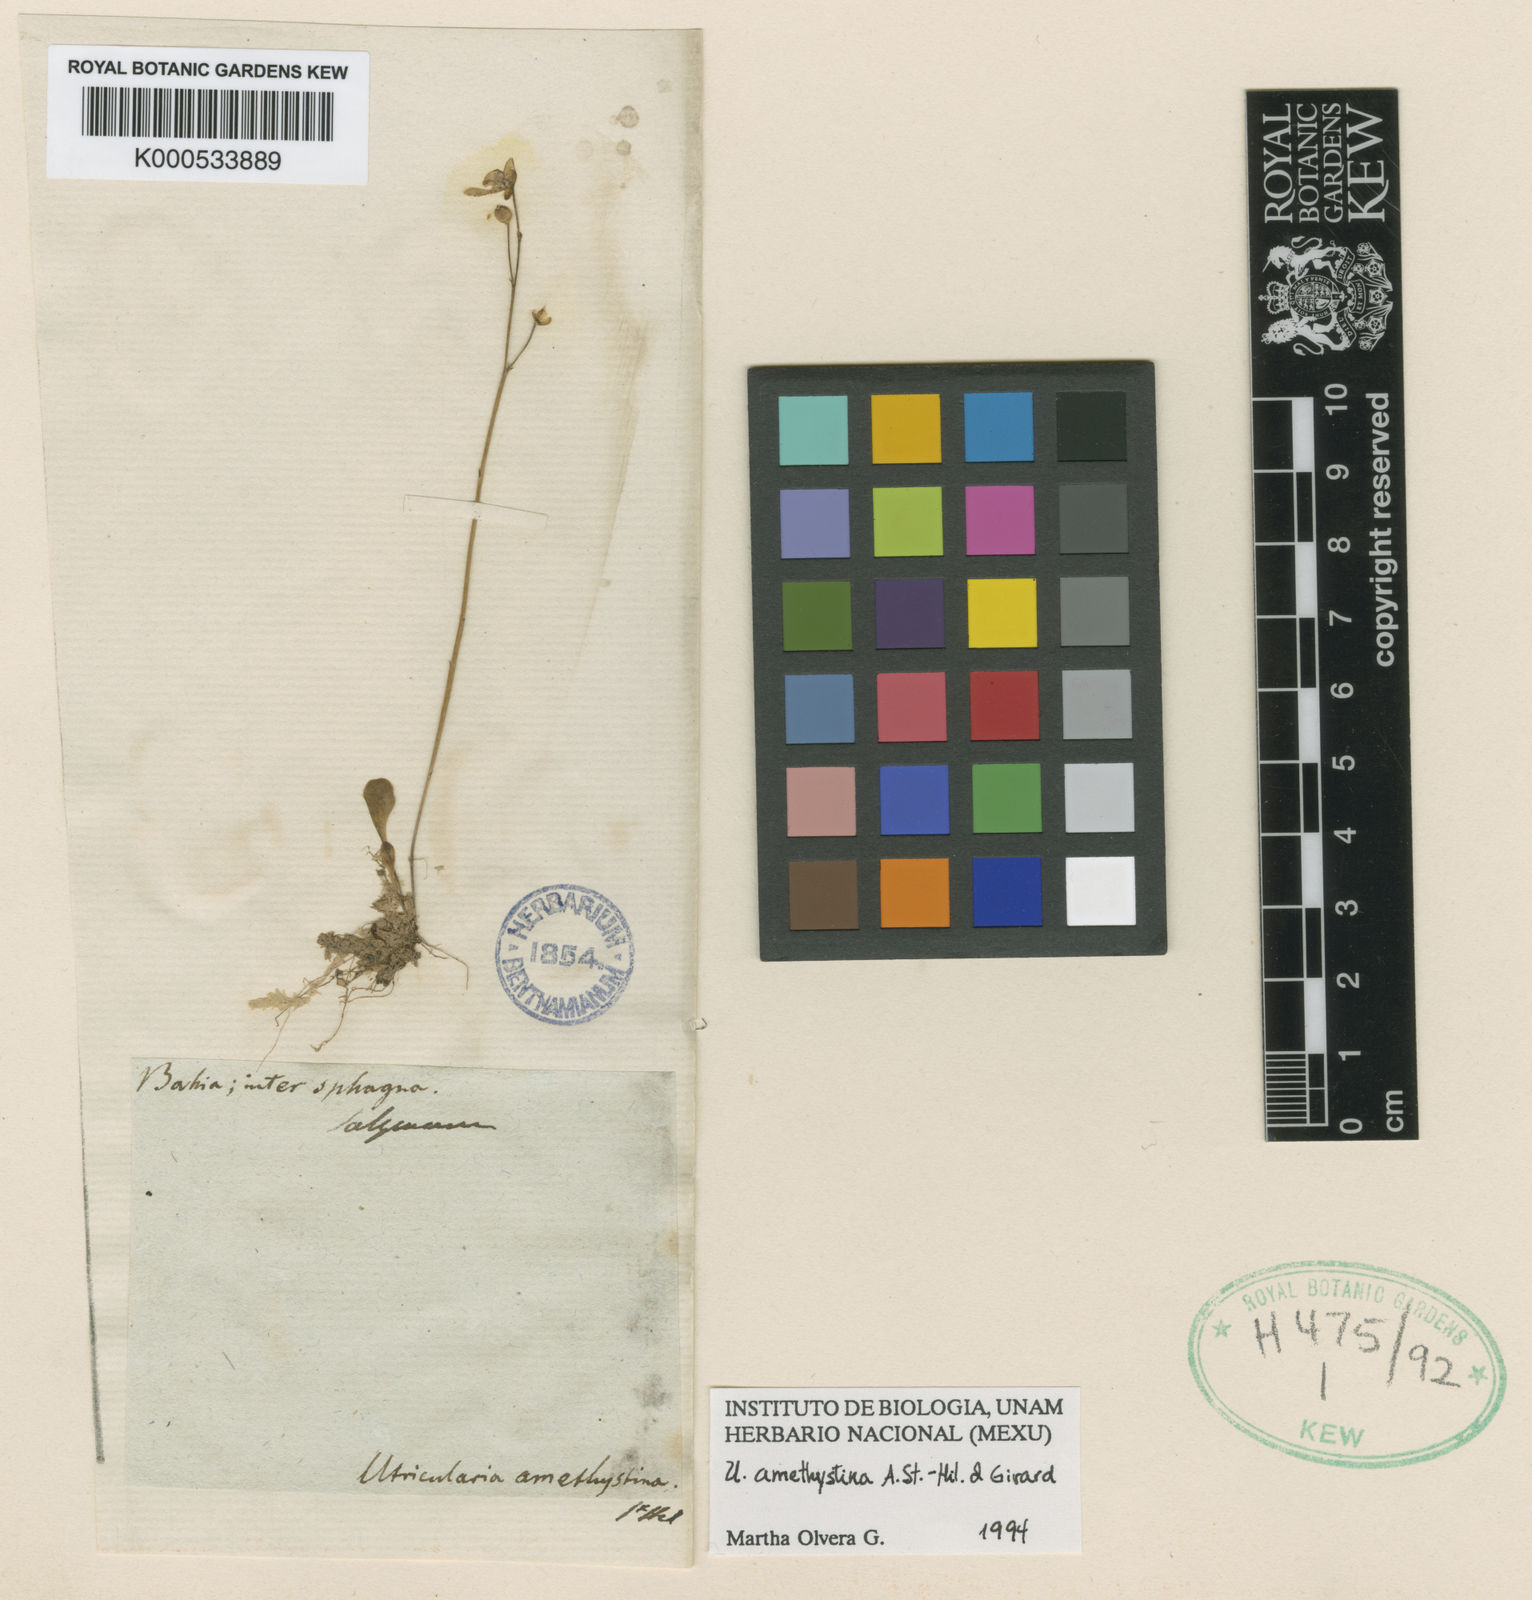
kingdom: Plantae
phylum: Tracheophyta
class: Magnoliopsida
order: Lamiales
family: Lentibulariaceae
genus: Utricularia
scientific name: Utricularia amethystina
